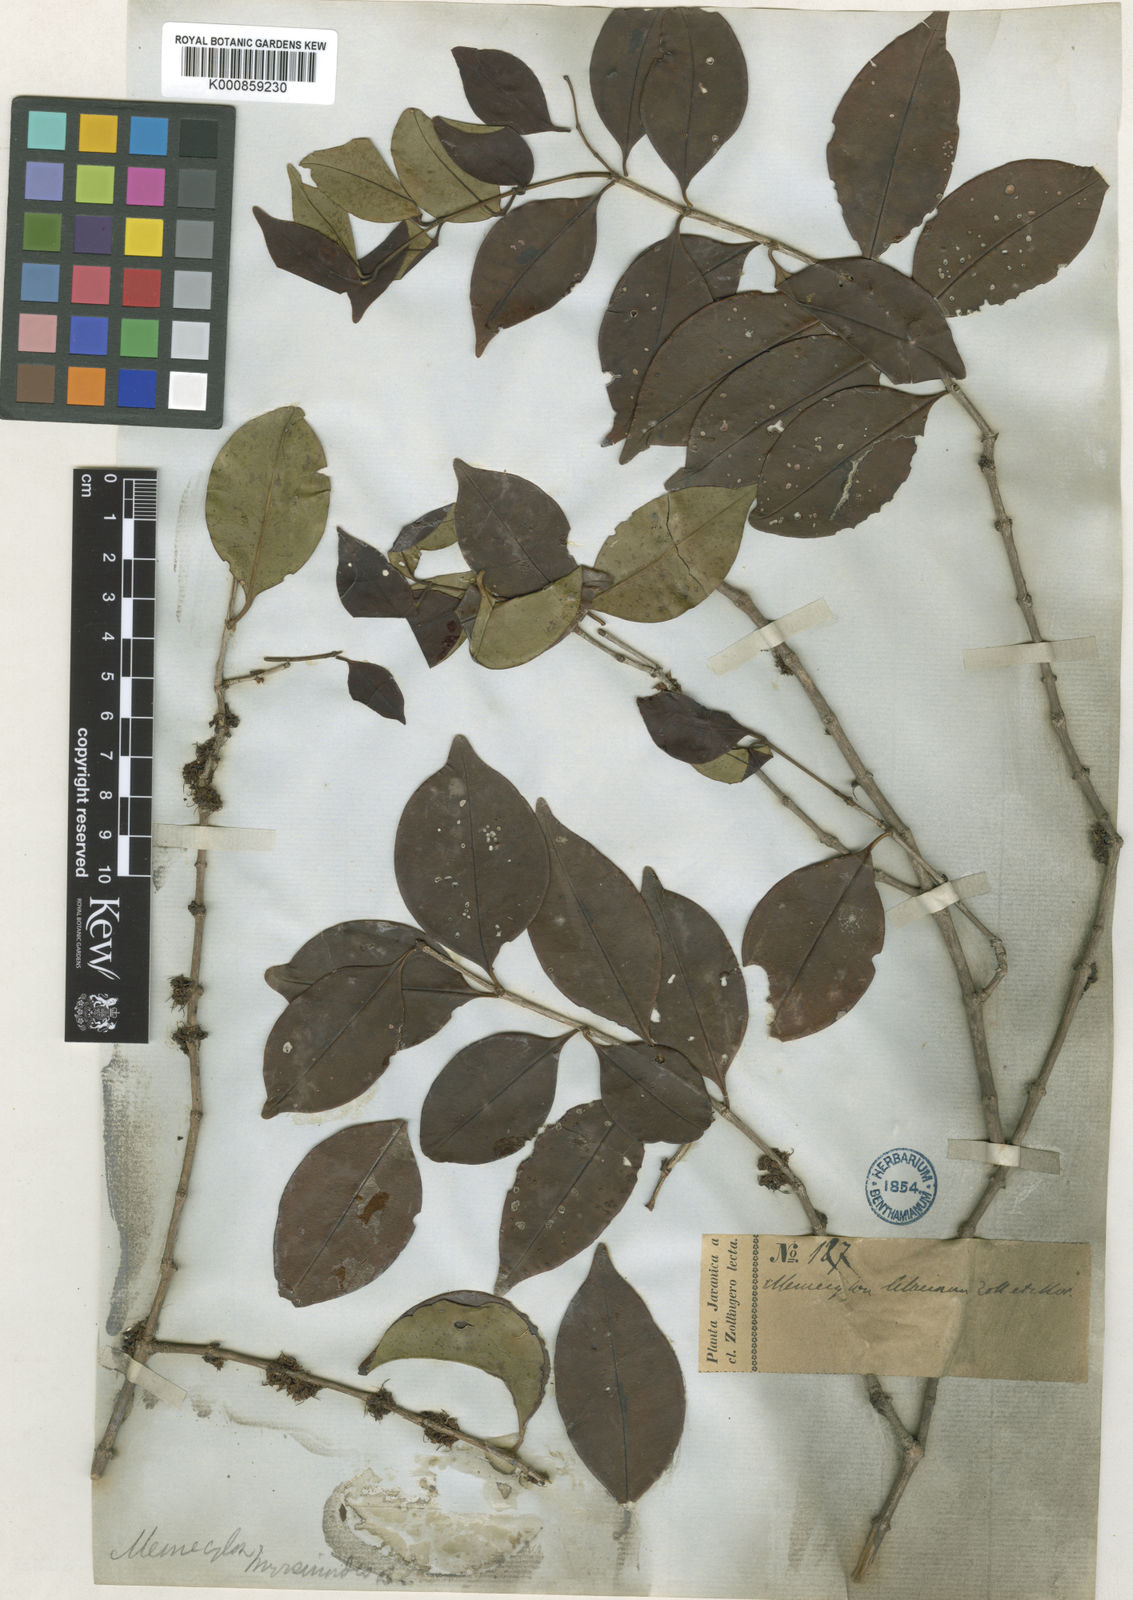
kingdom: Plantae
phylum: Tracheophyta
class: Magnoliopsida
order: Myrtales
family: Melastomataceae
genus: Memecylon
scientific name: Memecylon lilacinum
